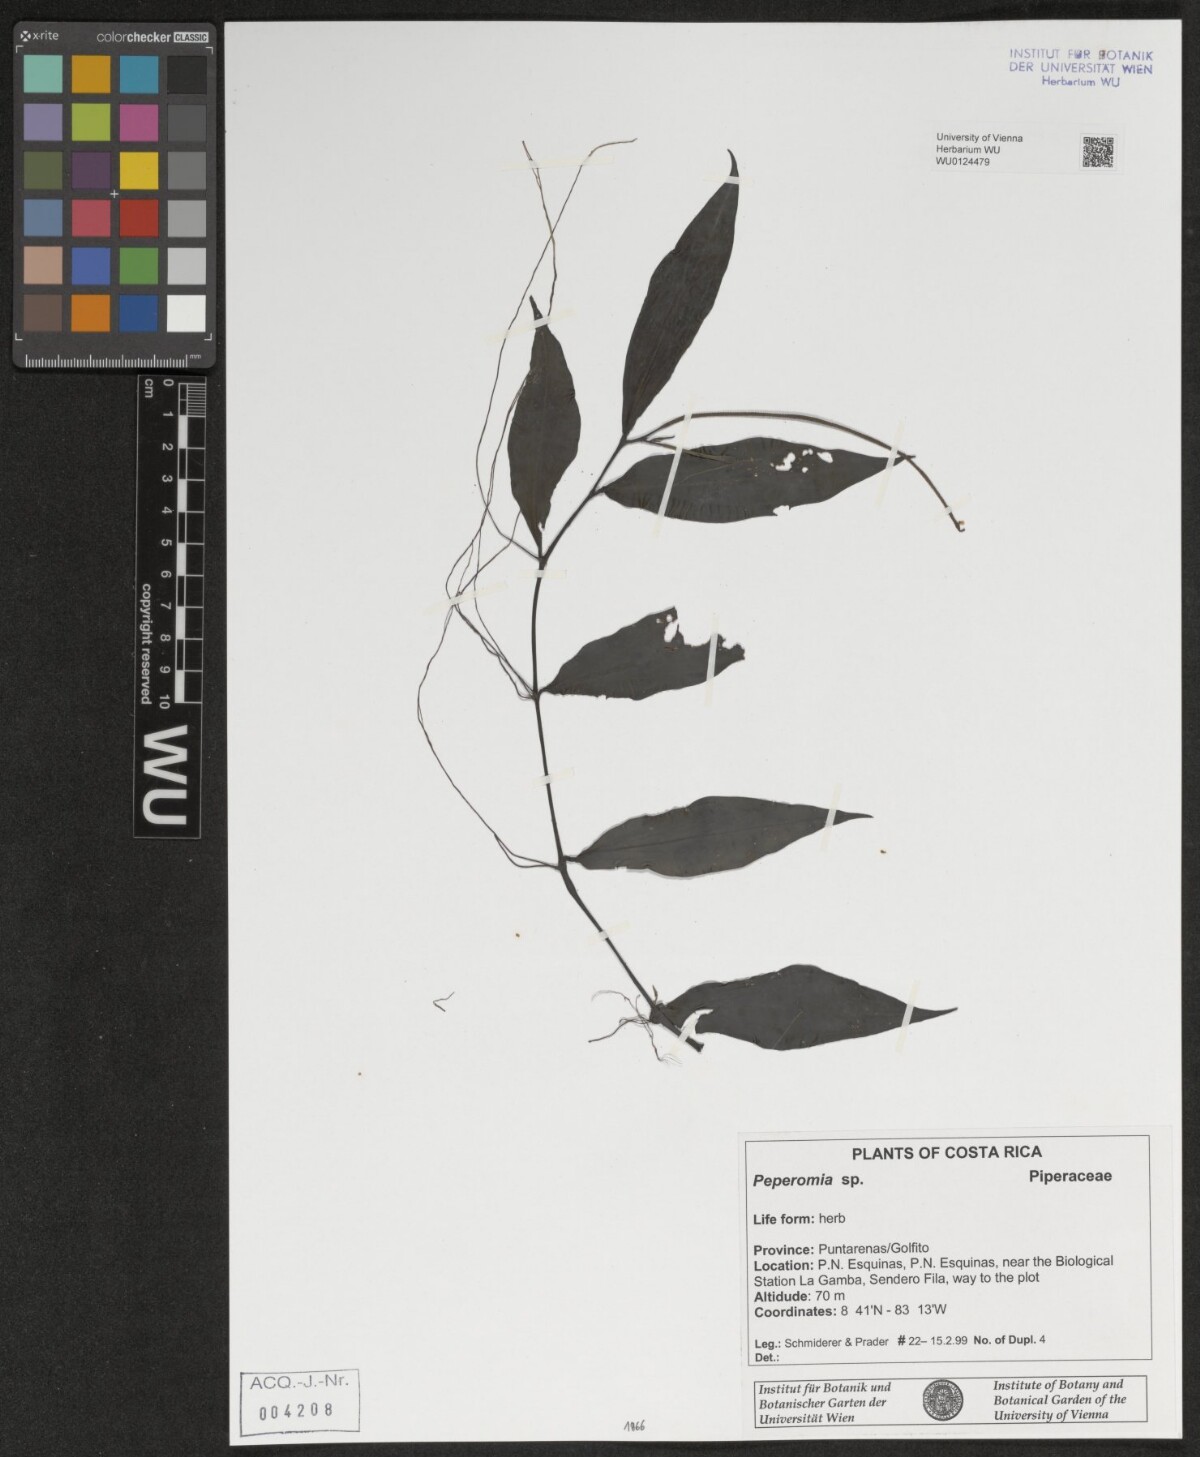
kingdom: Plantae
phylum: Tracheophyta
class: Magnoliopsida
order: Piperales
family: Piperaceae
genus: Peperomia
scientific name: Peperomia
